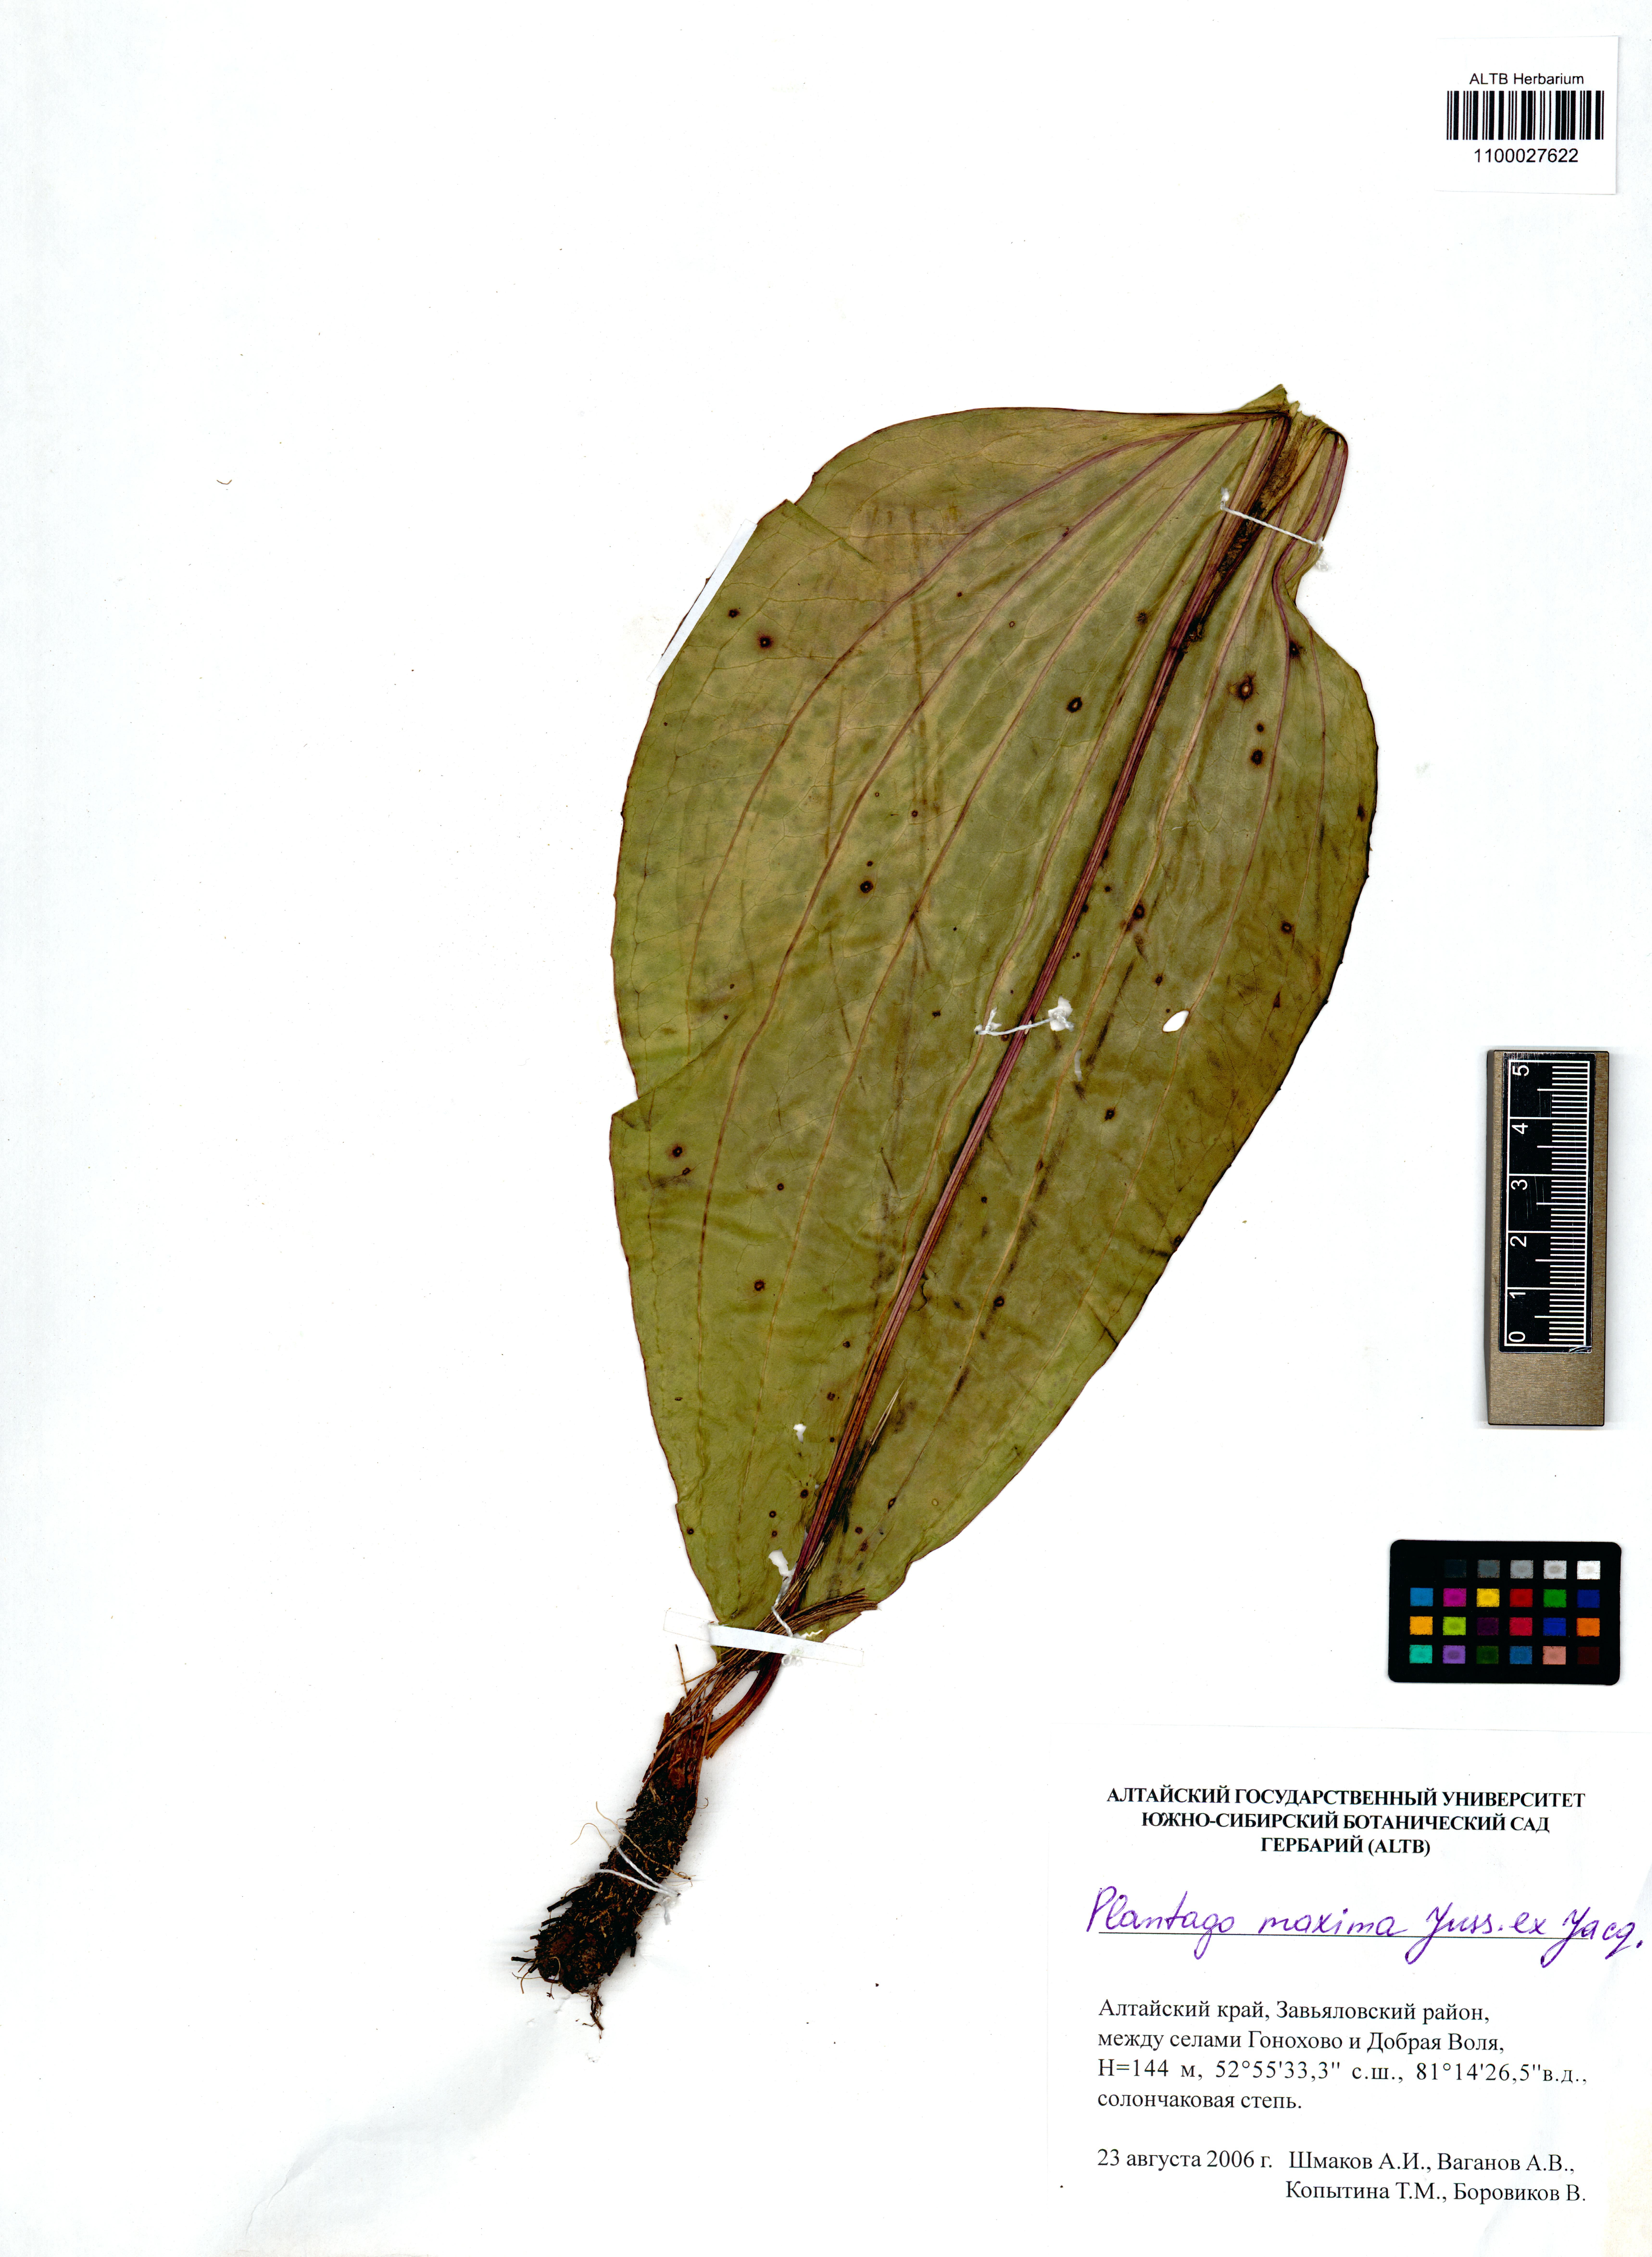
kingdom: Plantae
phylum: Tracheophyta
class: Magnoliopsida
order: Lamiales
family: Plantaginaceae
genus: Plantago
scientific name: Plantago maxima
